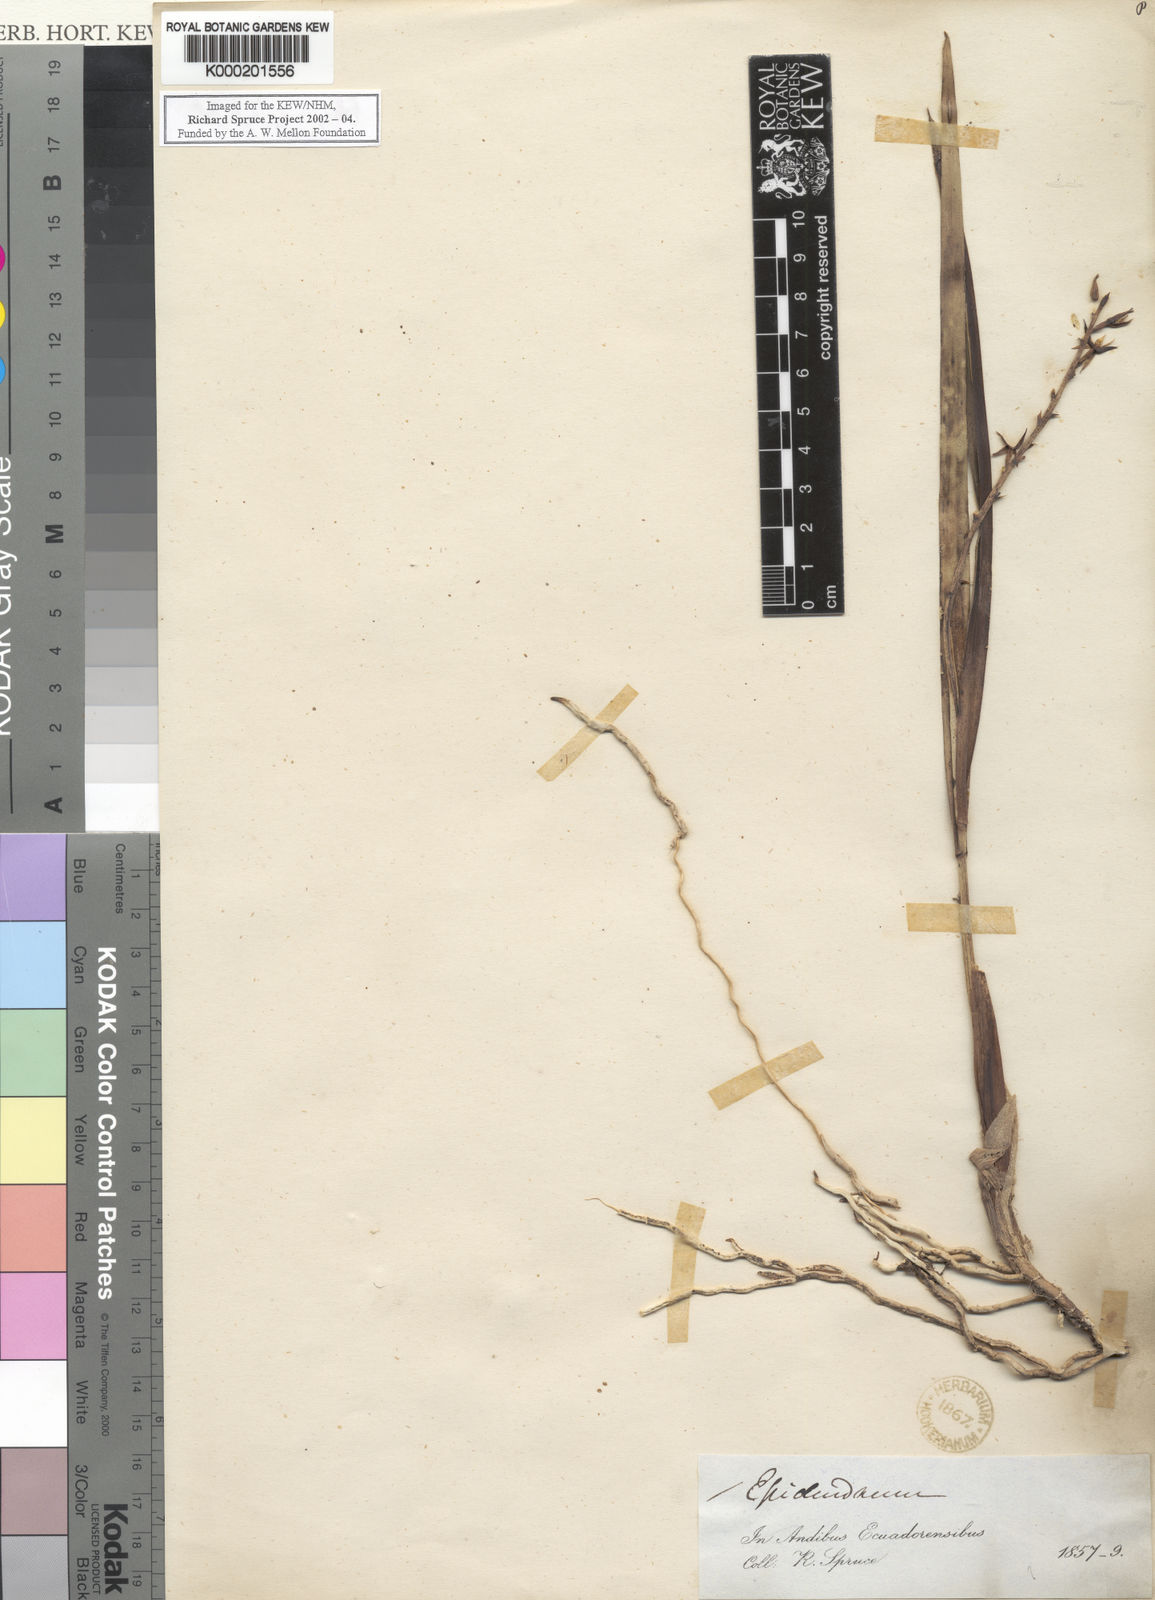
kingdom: Plantae
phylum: Tracheophyta
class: Liliopsida
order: Asparagales
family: Orchidaceae
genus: Prosthechea
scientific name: Prosthechea grammatoglossa
